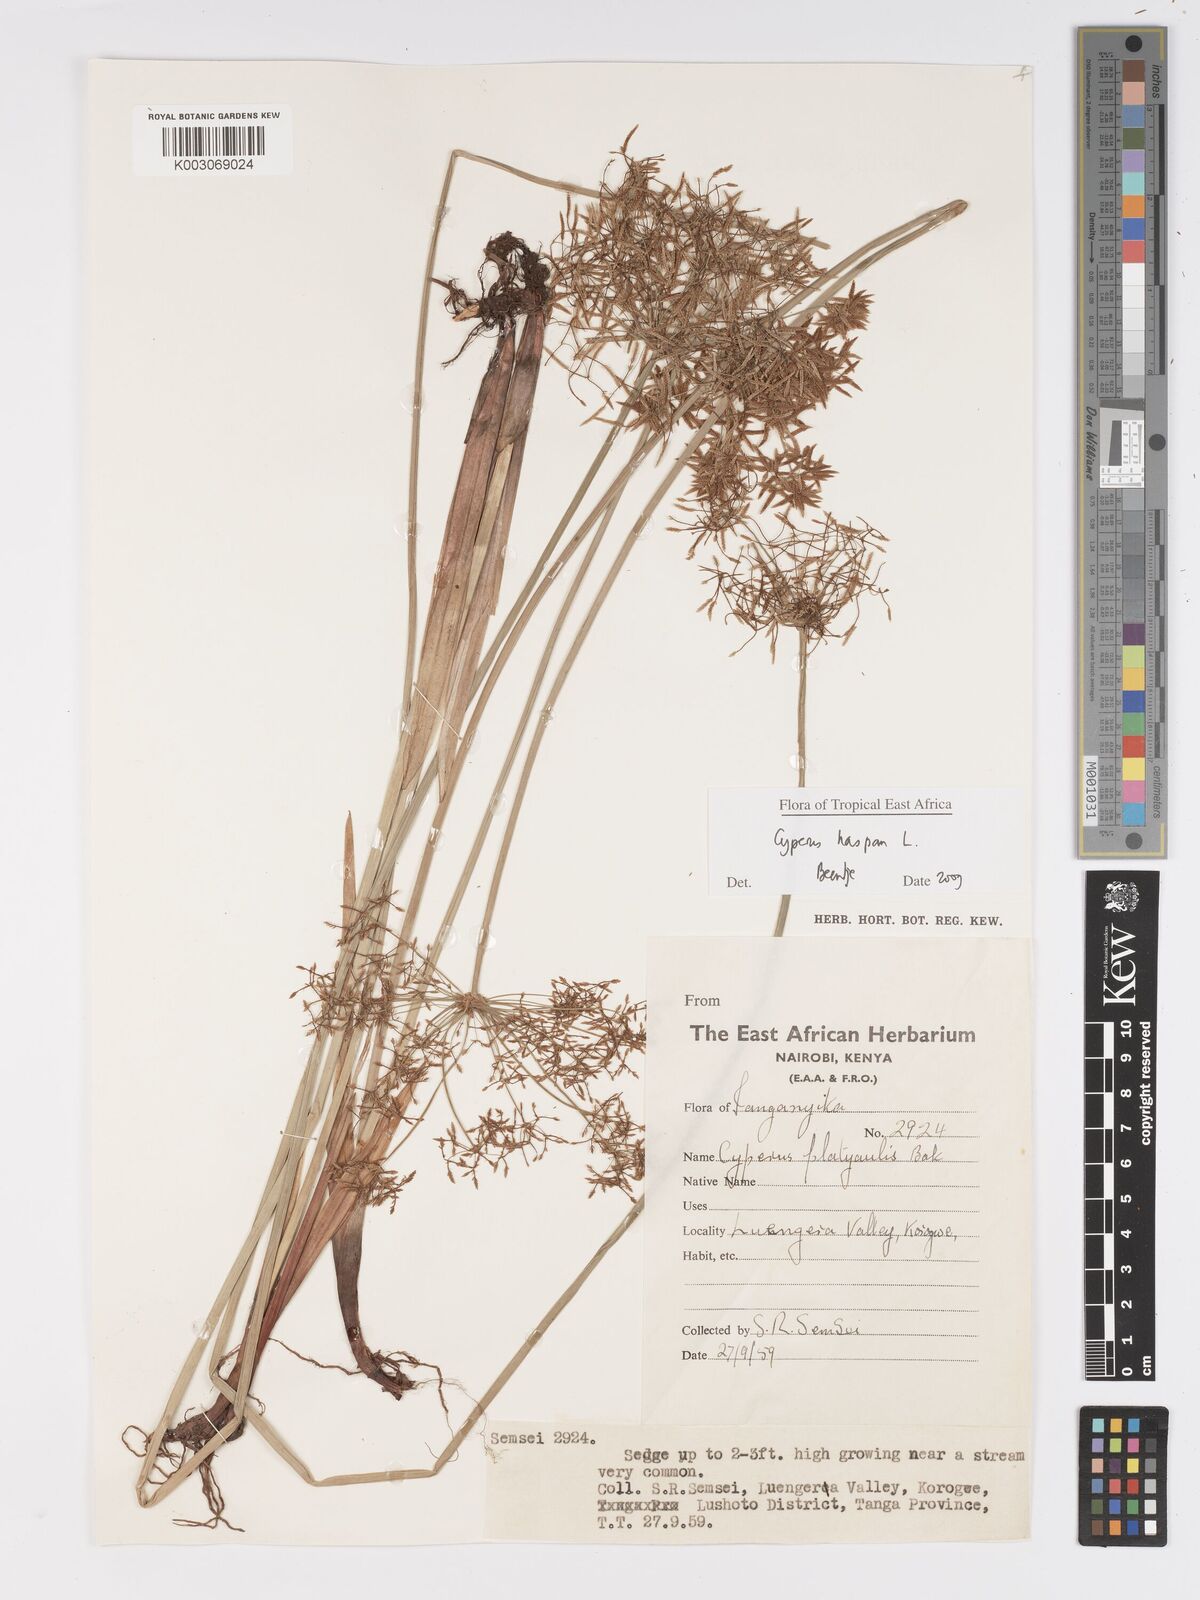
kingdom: Plantae
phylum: Tracheophyta
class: Liliopsida
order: Poales
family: Cyperaceae
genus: Cyperus
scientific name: Cyperus haspan
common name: Haspan flatsedge
